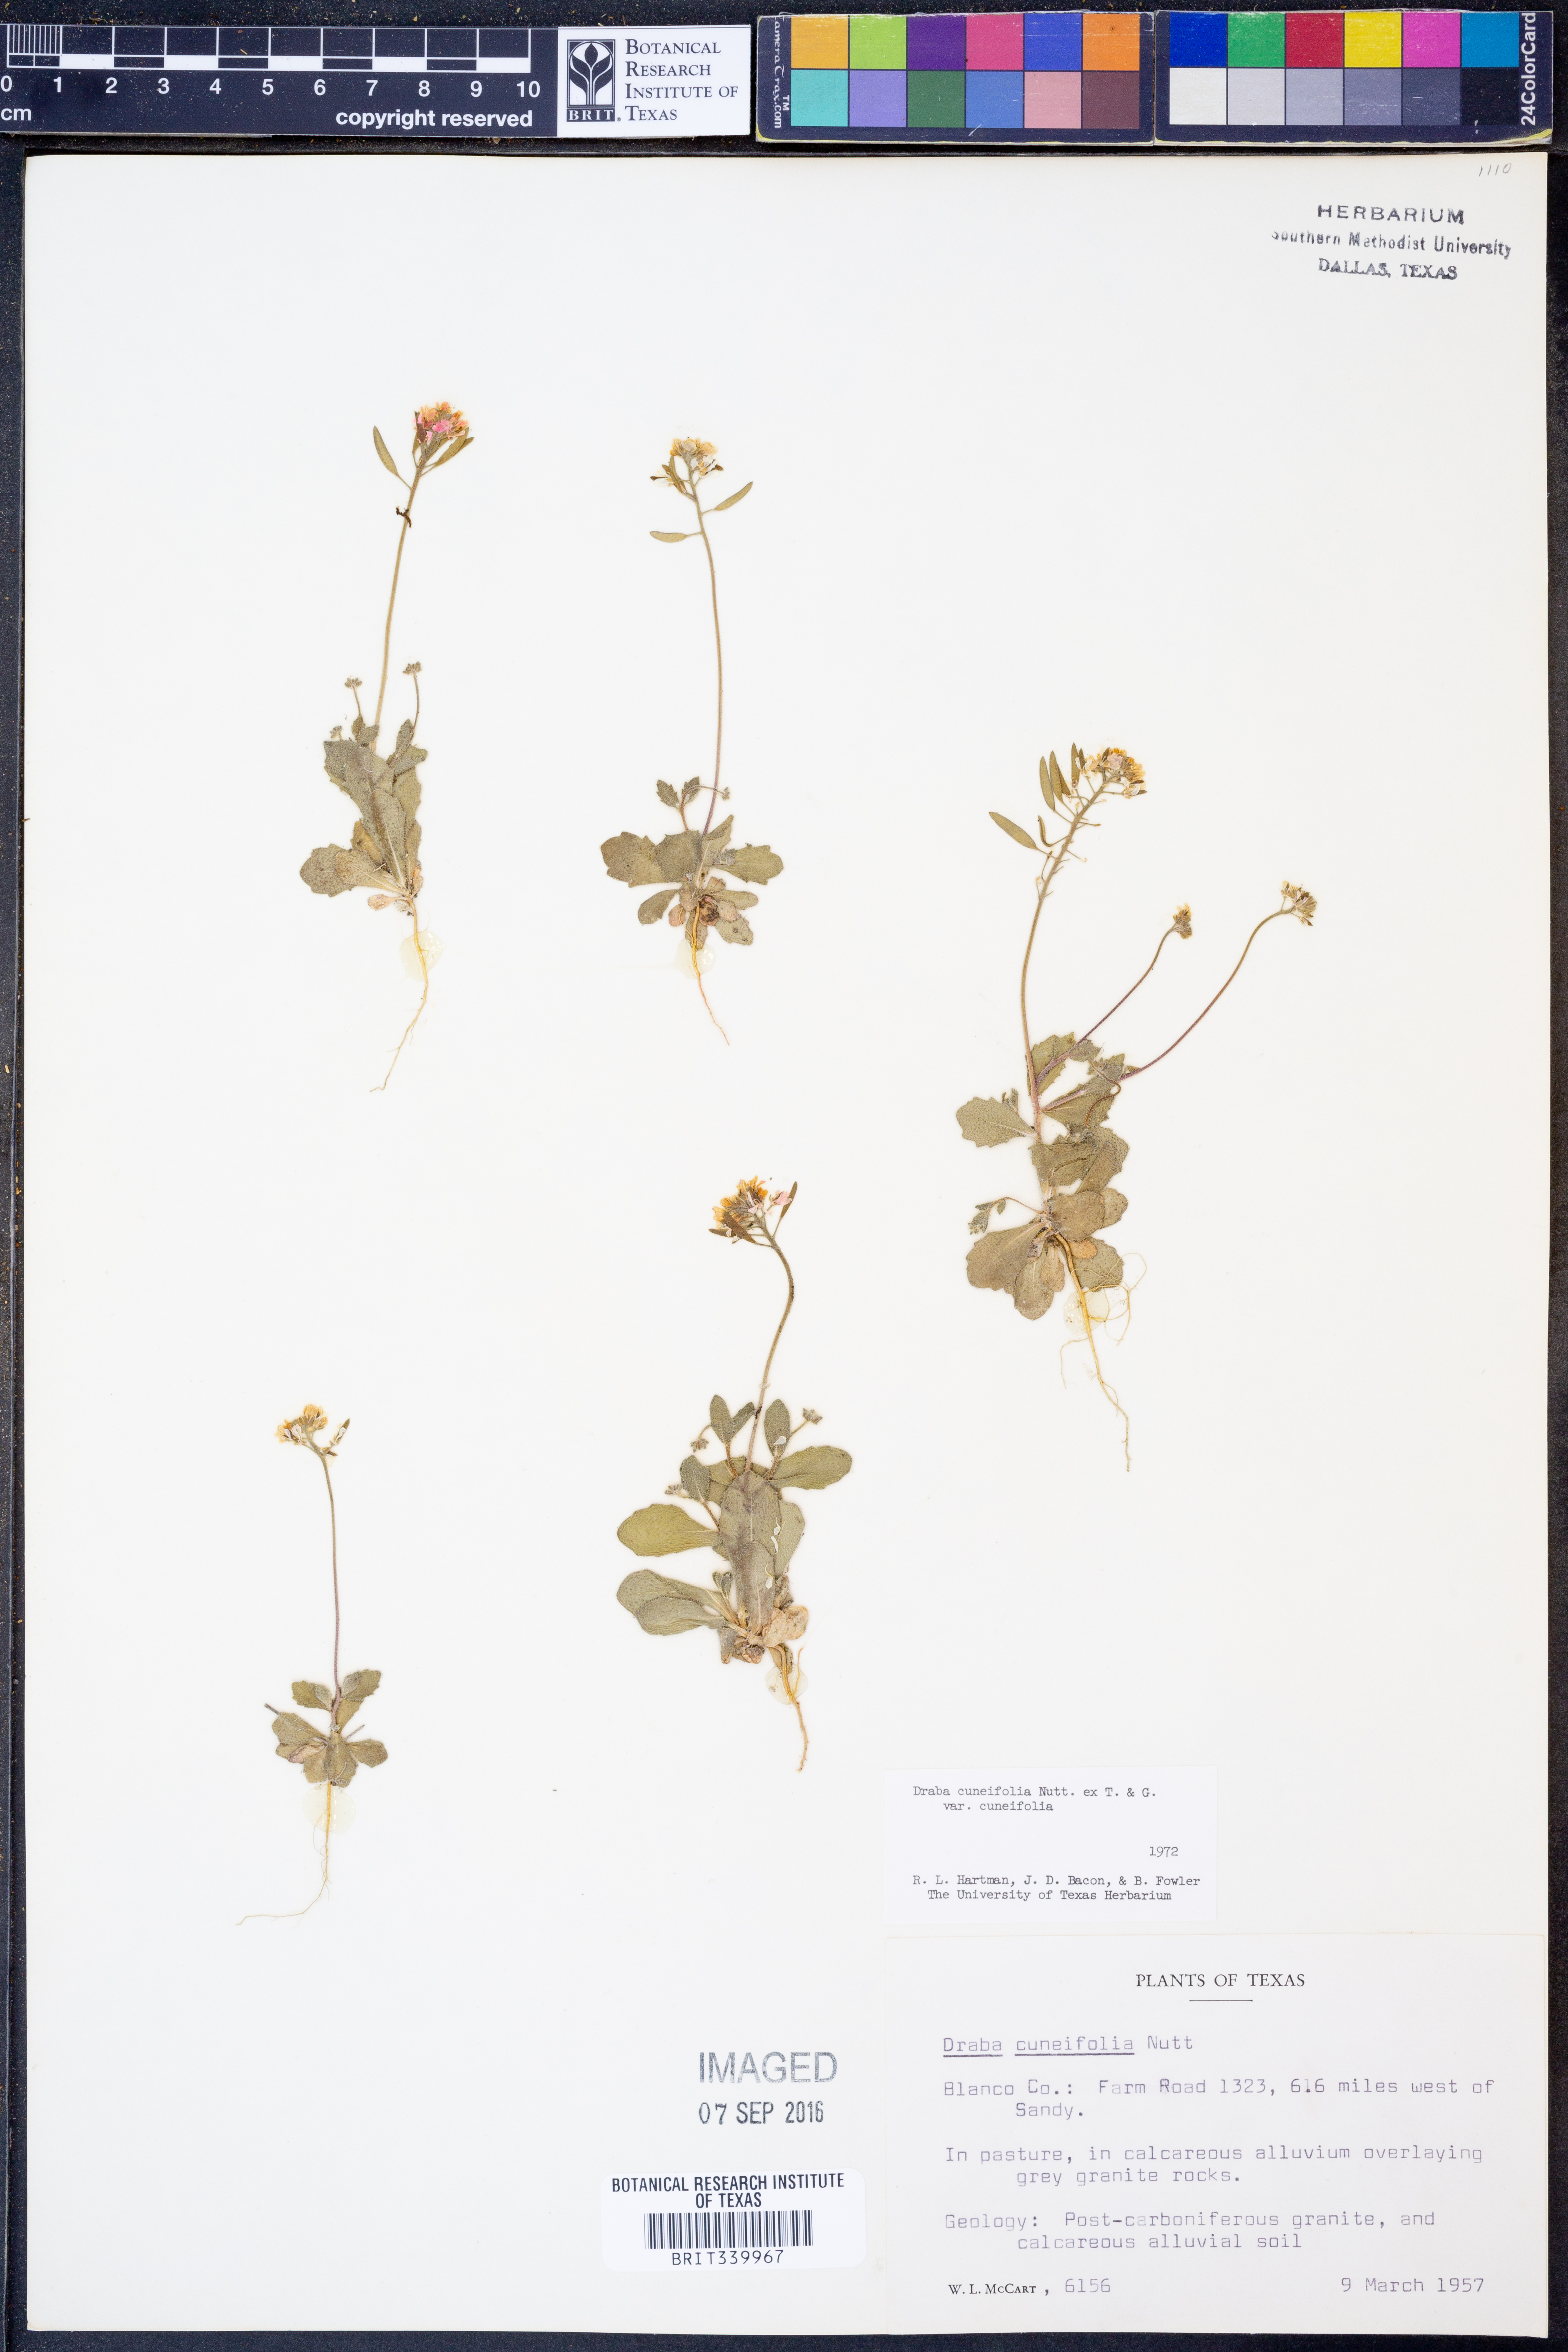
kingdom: Plantae
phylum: Tracheophyta
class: Magnoliopsida
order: Brassicales
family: Brassicaceae
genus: Tomostima
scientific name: Tomostima cuneifolia
